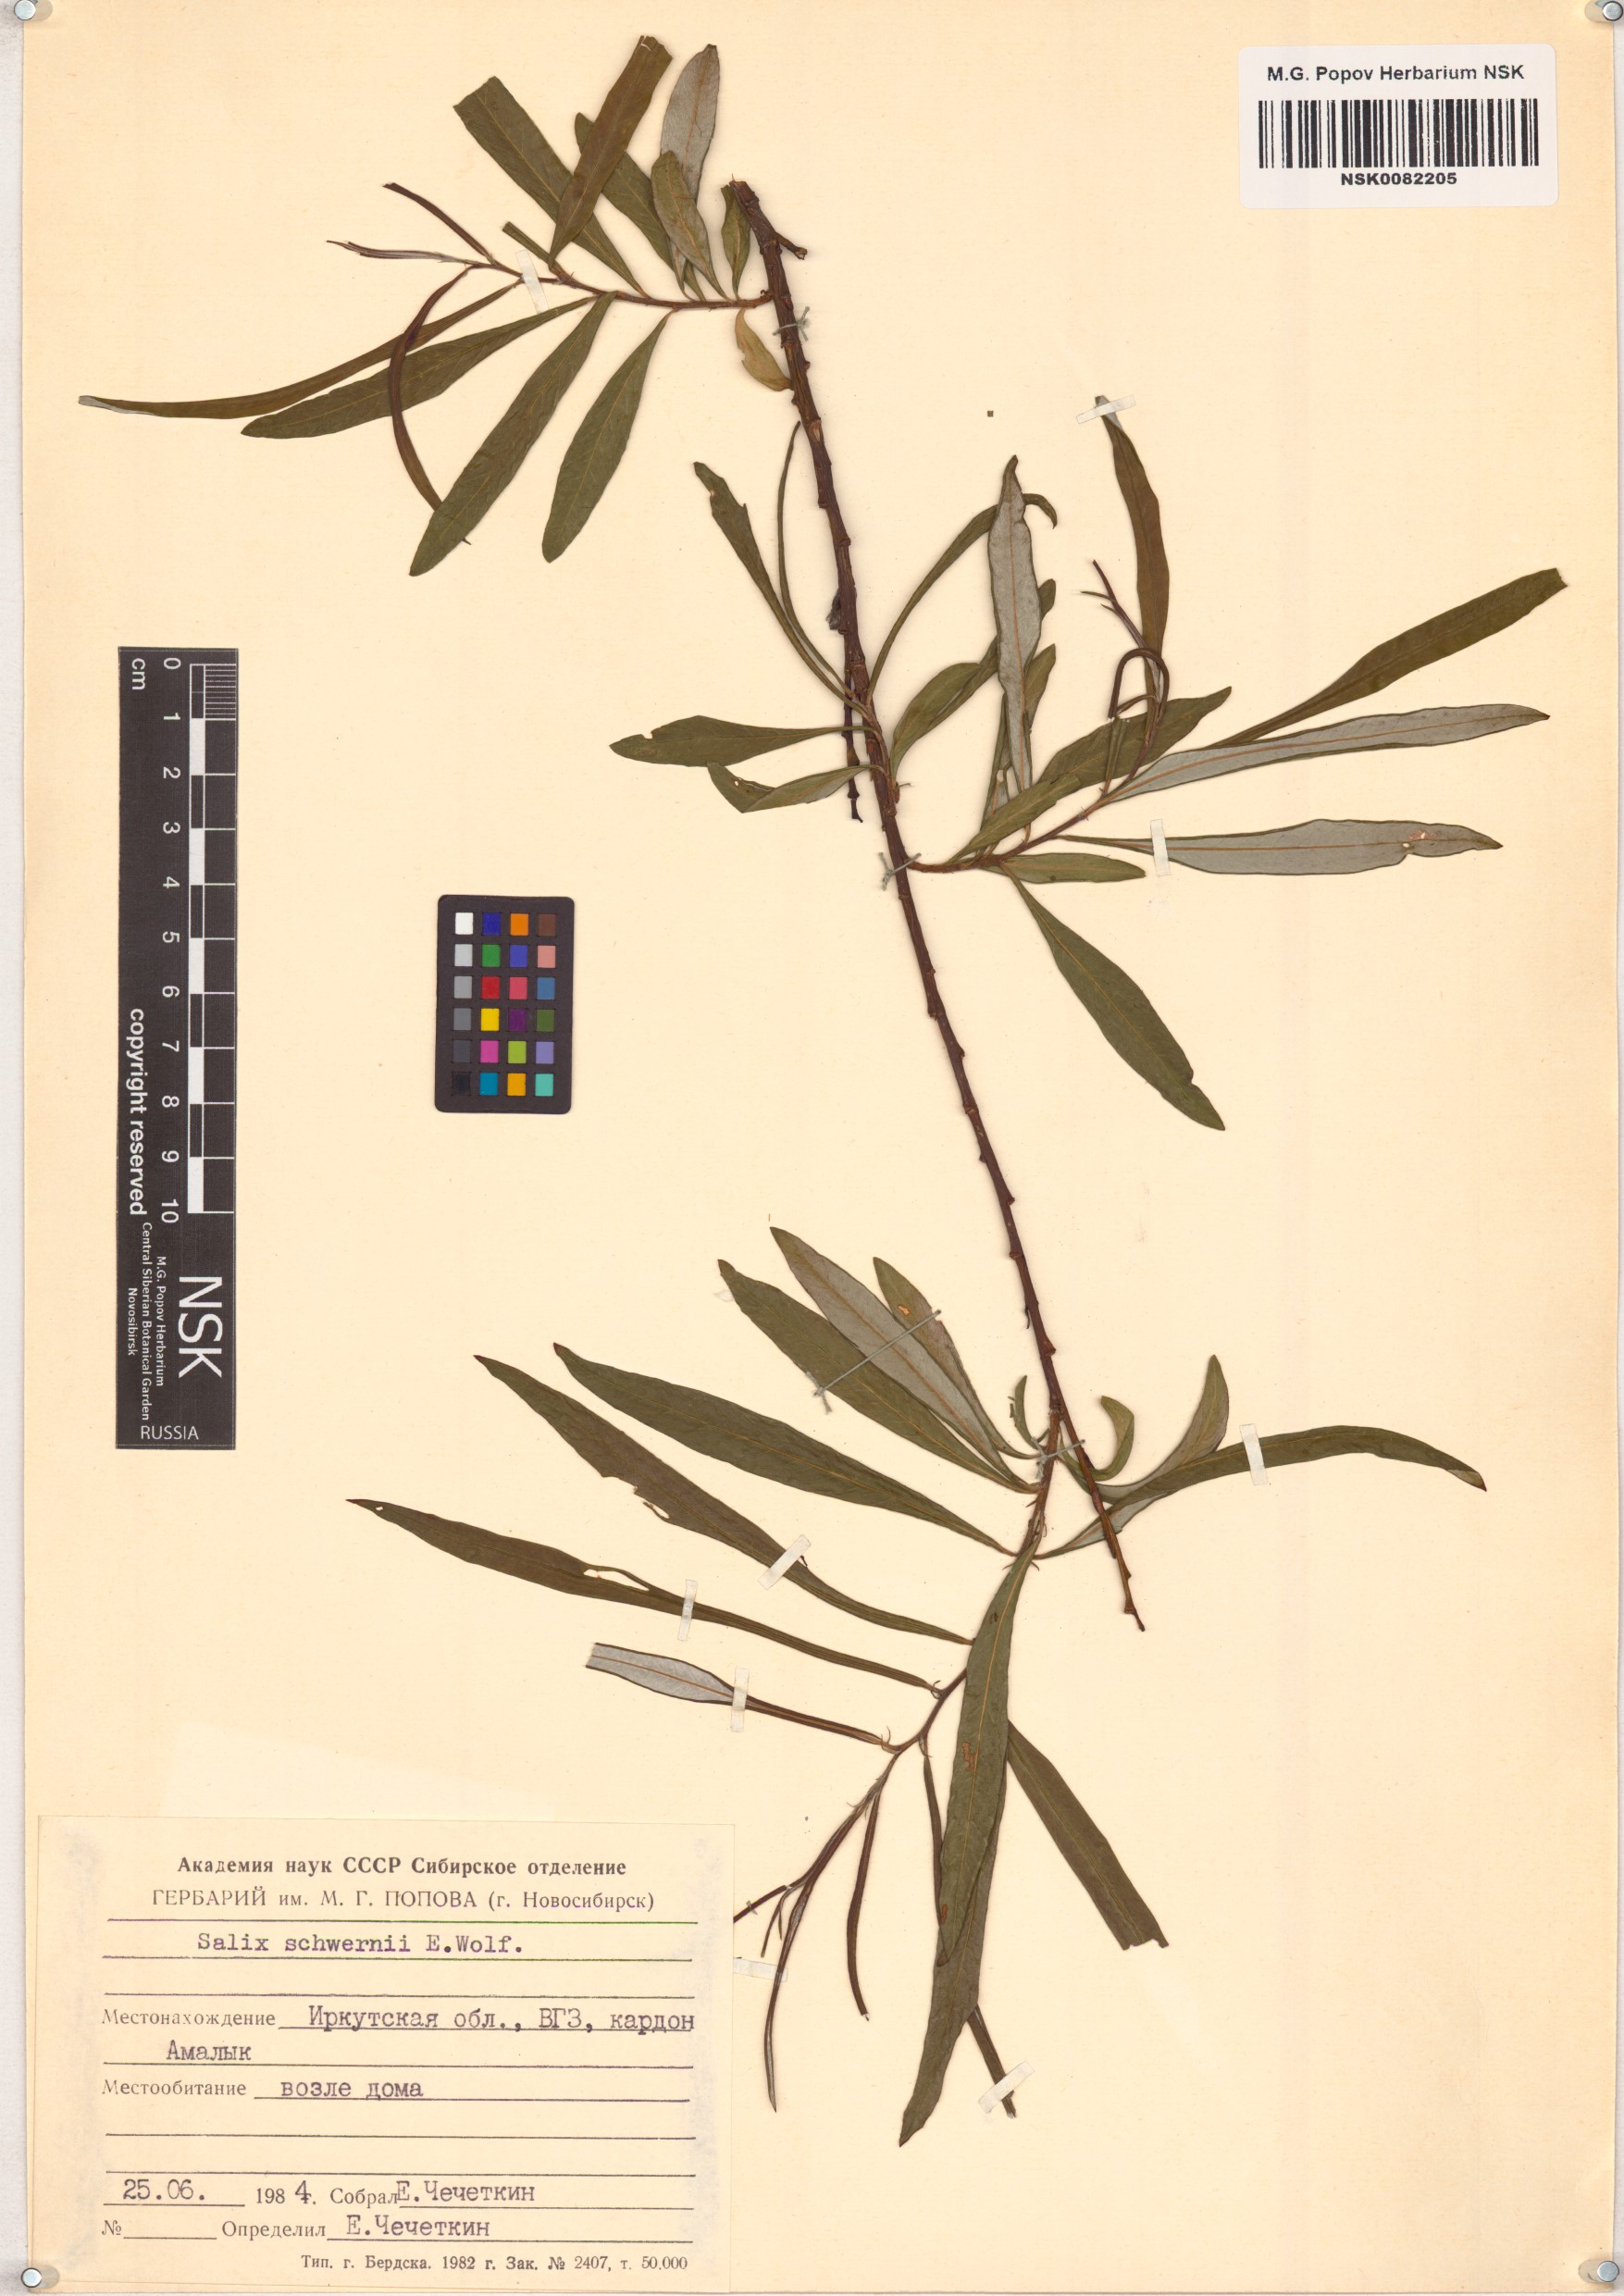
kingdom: Plantae
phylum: Tracheophyta
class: Magnoliopsida
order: Malpighiales
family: Salicaceae
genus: Salix
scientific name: Salix schwerinii
